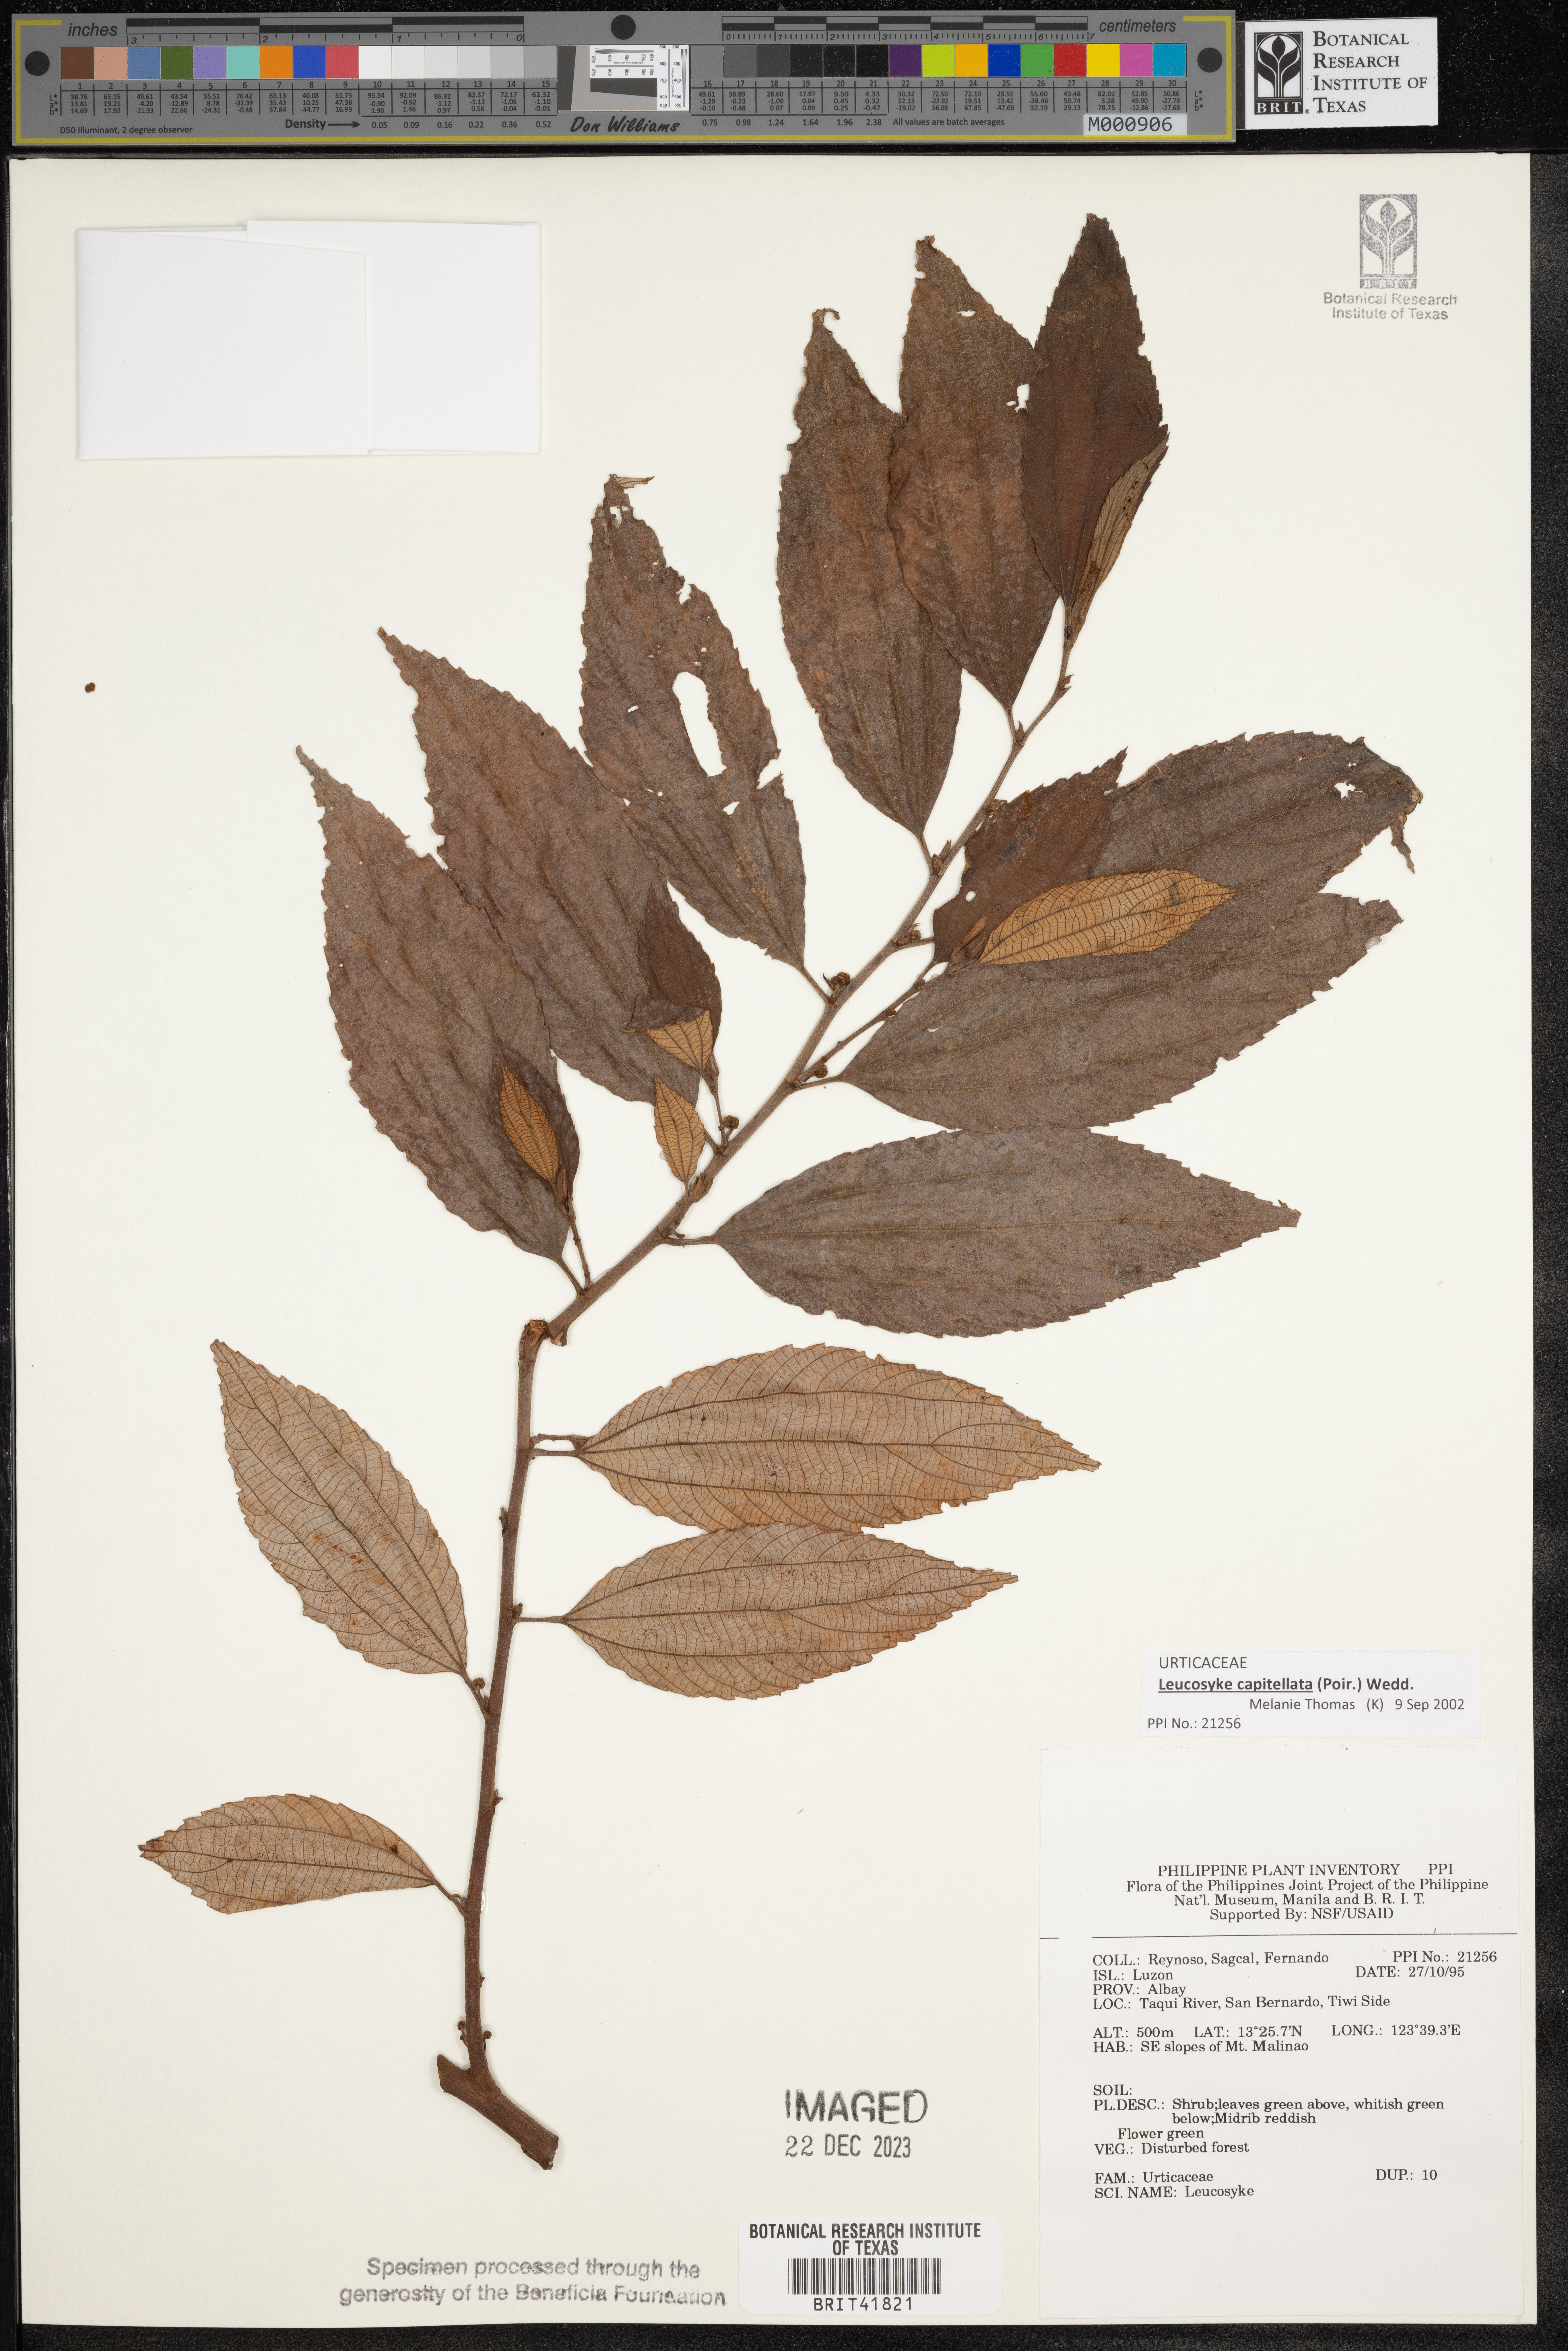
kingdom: Plantae
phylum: Tracheophyta
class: Magnoliopsida
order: Rosales
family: Urticaceae
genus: Leucosyke
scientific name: Leucosyke
